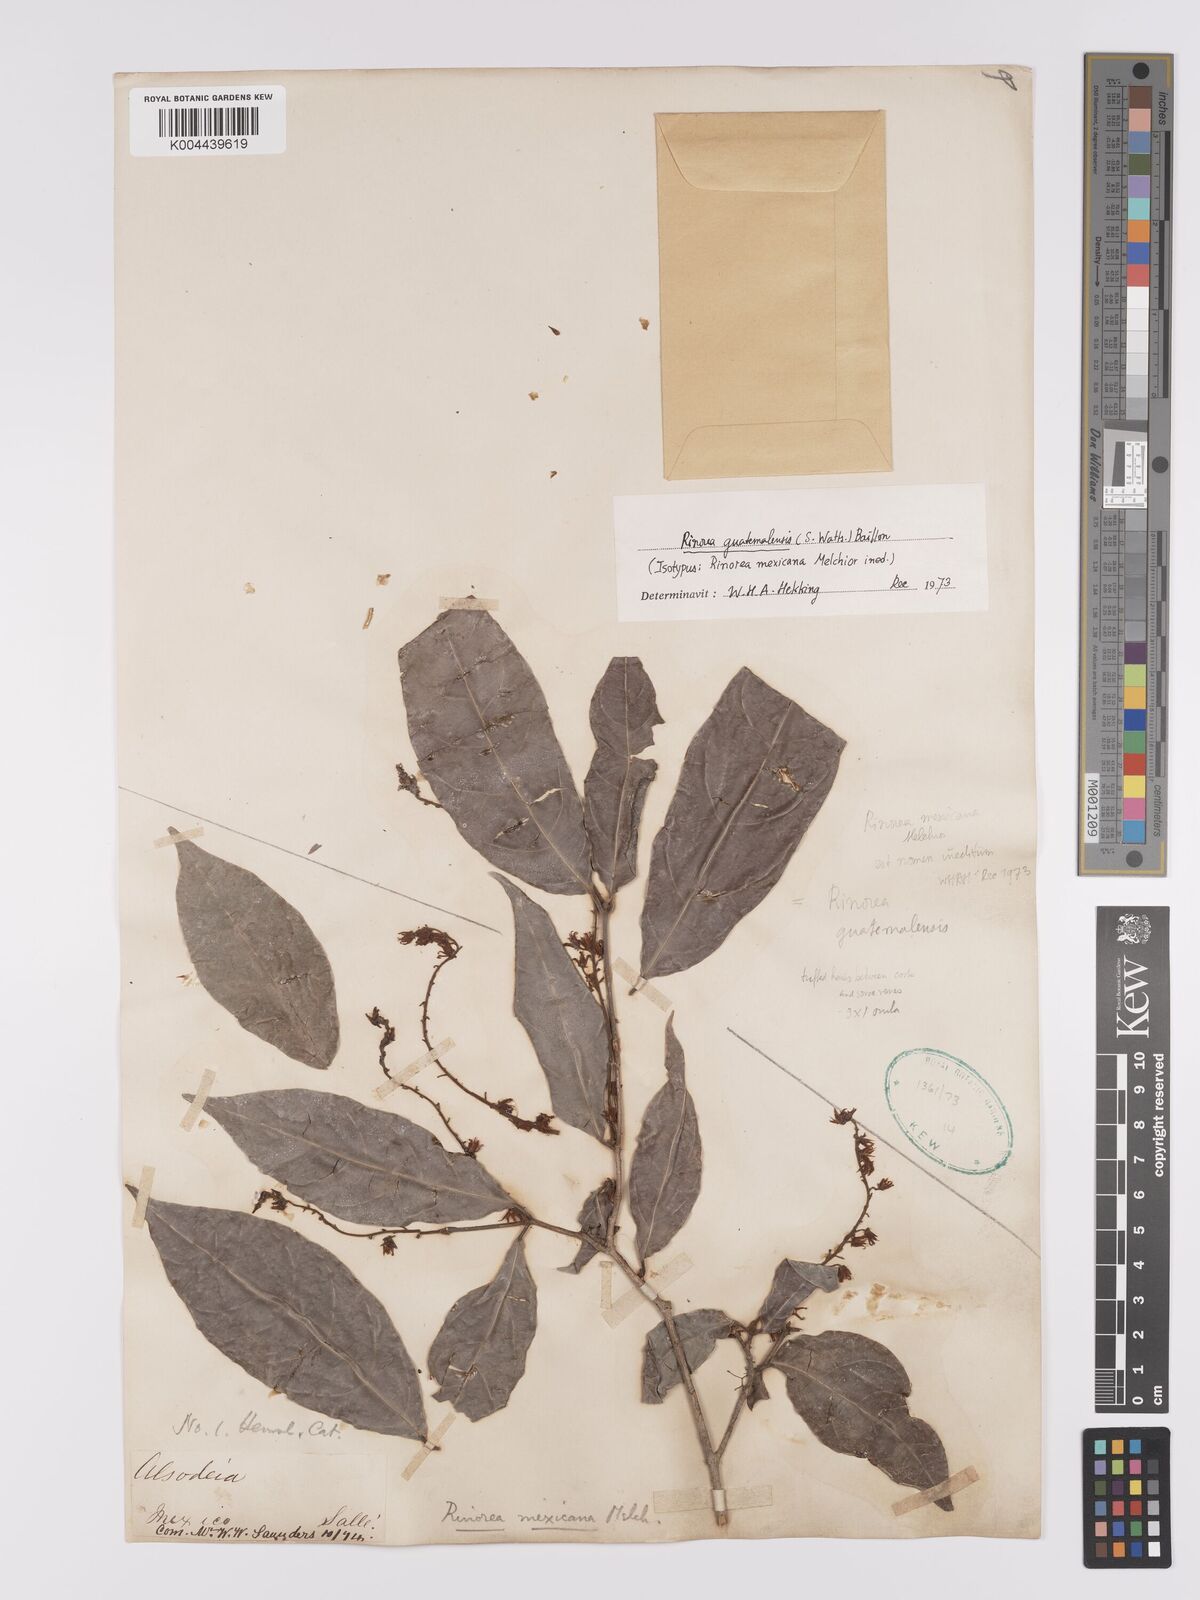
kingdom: Plantae
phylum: Tracheophyta
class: Magnoliopsida
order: Malpighiales
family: Violaceae
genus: Rinorea
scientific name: Rinorea guatemalensis
